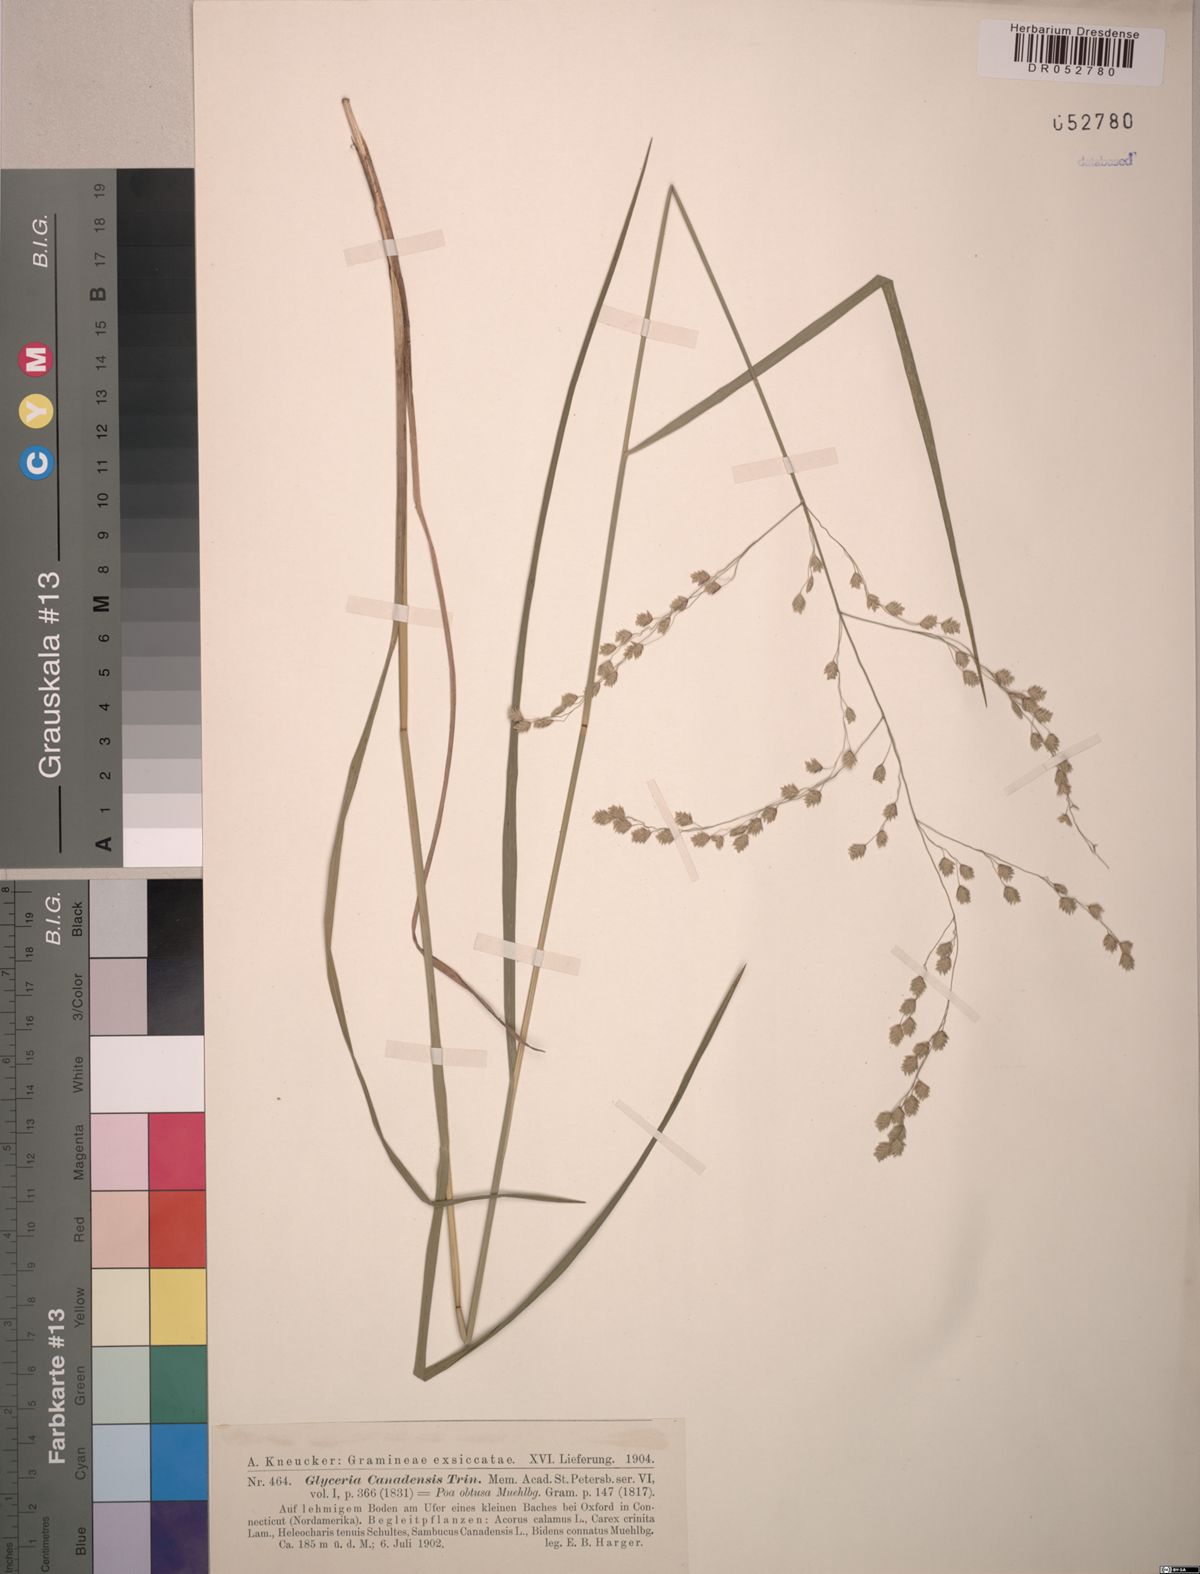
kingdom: Plantae
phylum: Tracheophyta
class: Liliopsida
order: Poales
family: Poaceae
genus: Glyceria
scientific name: Glyceria canadensis
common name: Canada mannagrass
